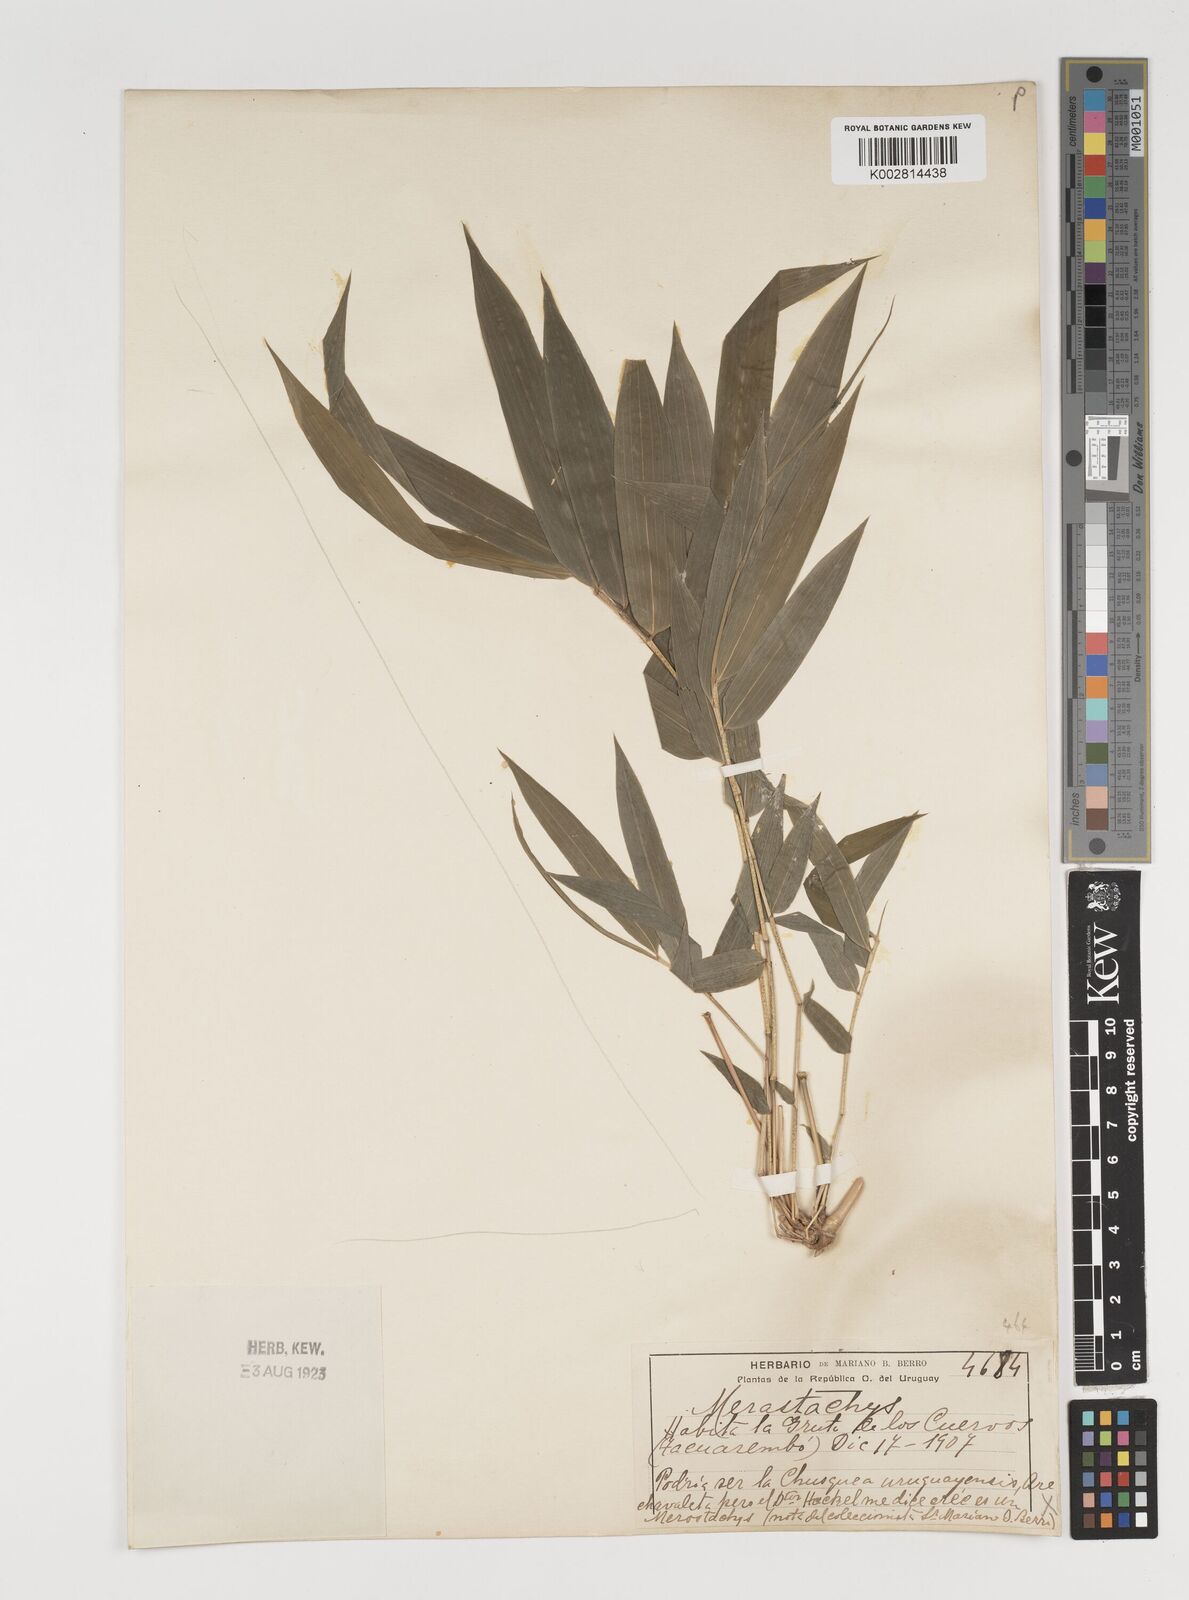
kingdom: Plantae
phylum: Tracheophyta
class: Liliopsida
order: Poales
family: Poaceae
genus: Merostachys
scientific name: Merostachys
